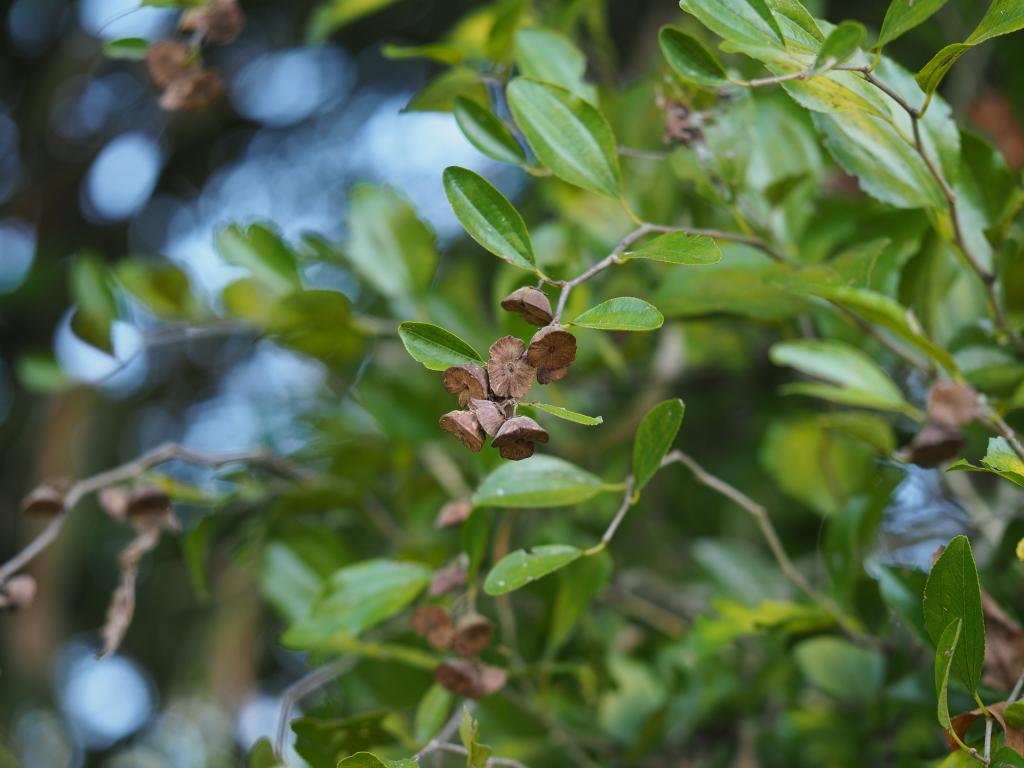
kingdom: Plantae
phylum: Tracheophyta
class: Magnoliopsida
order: Rosales
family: Rhamnaceae
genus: Paliurus
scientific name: Paliurus ramosissimus
